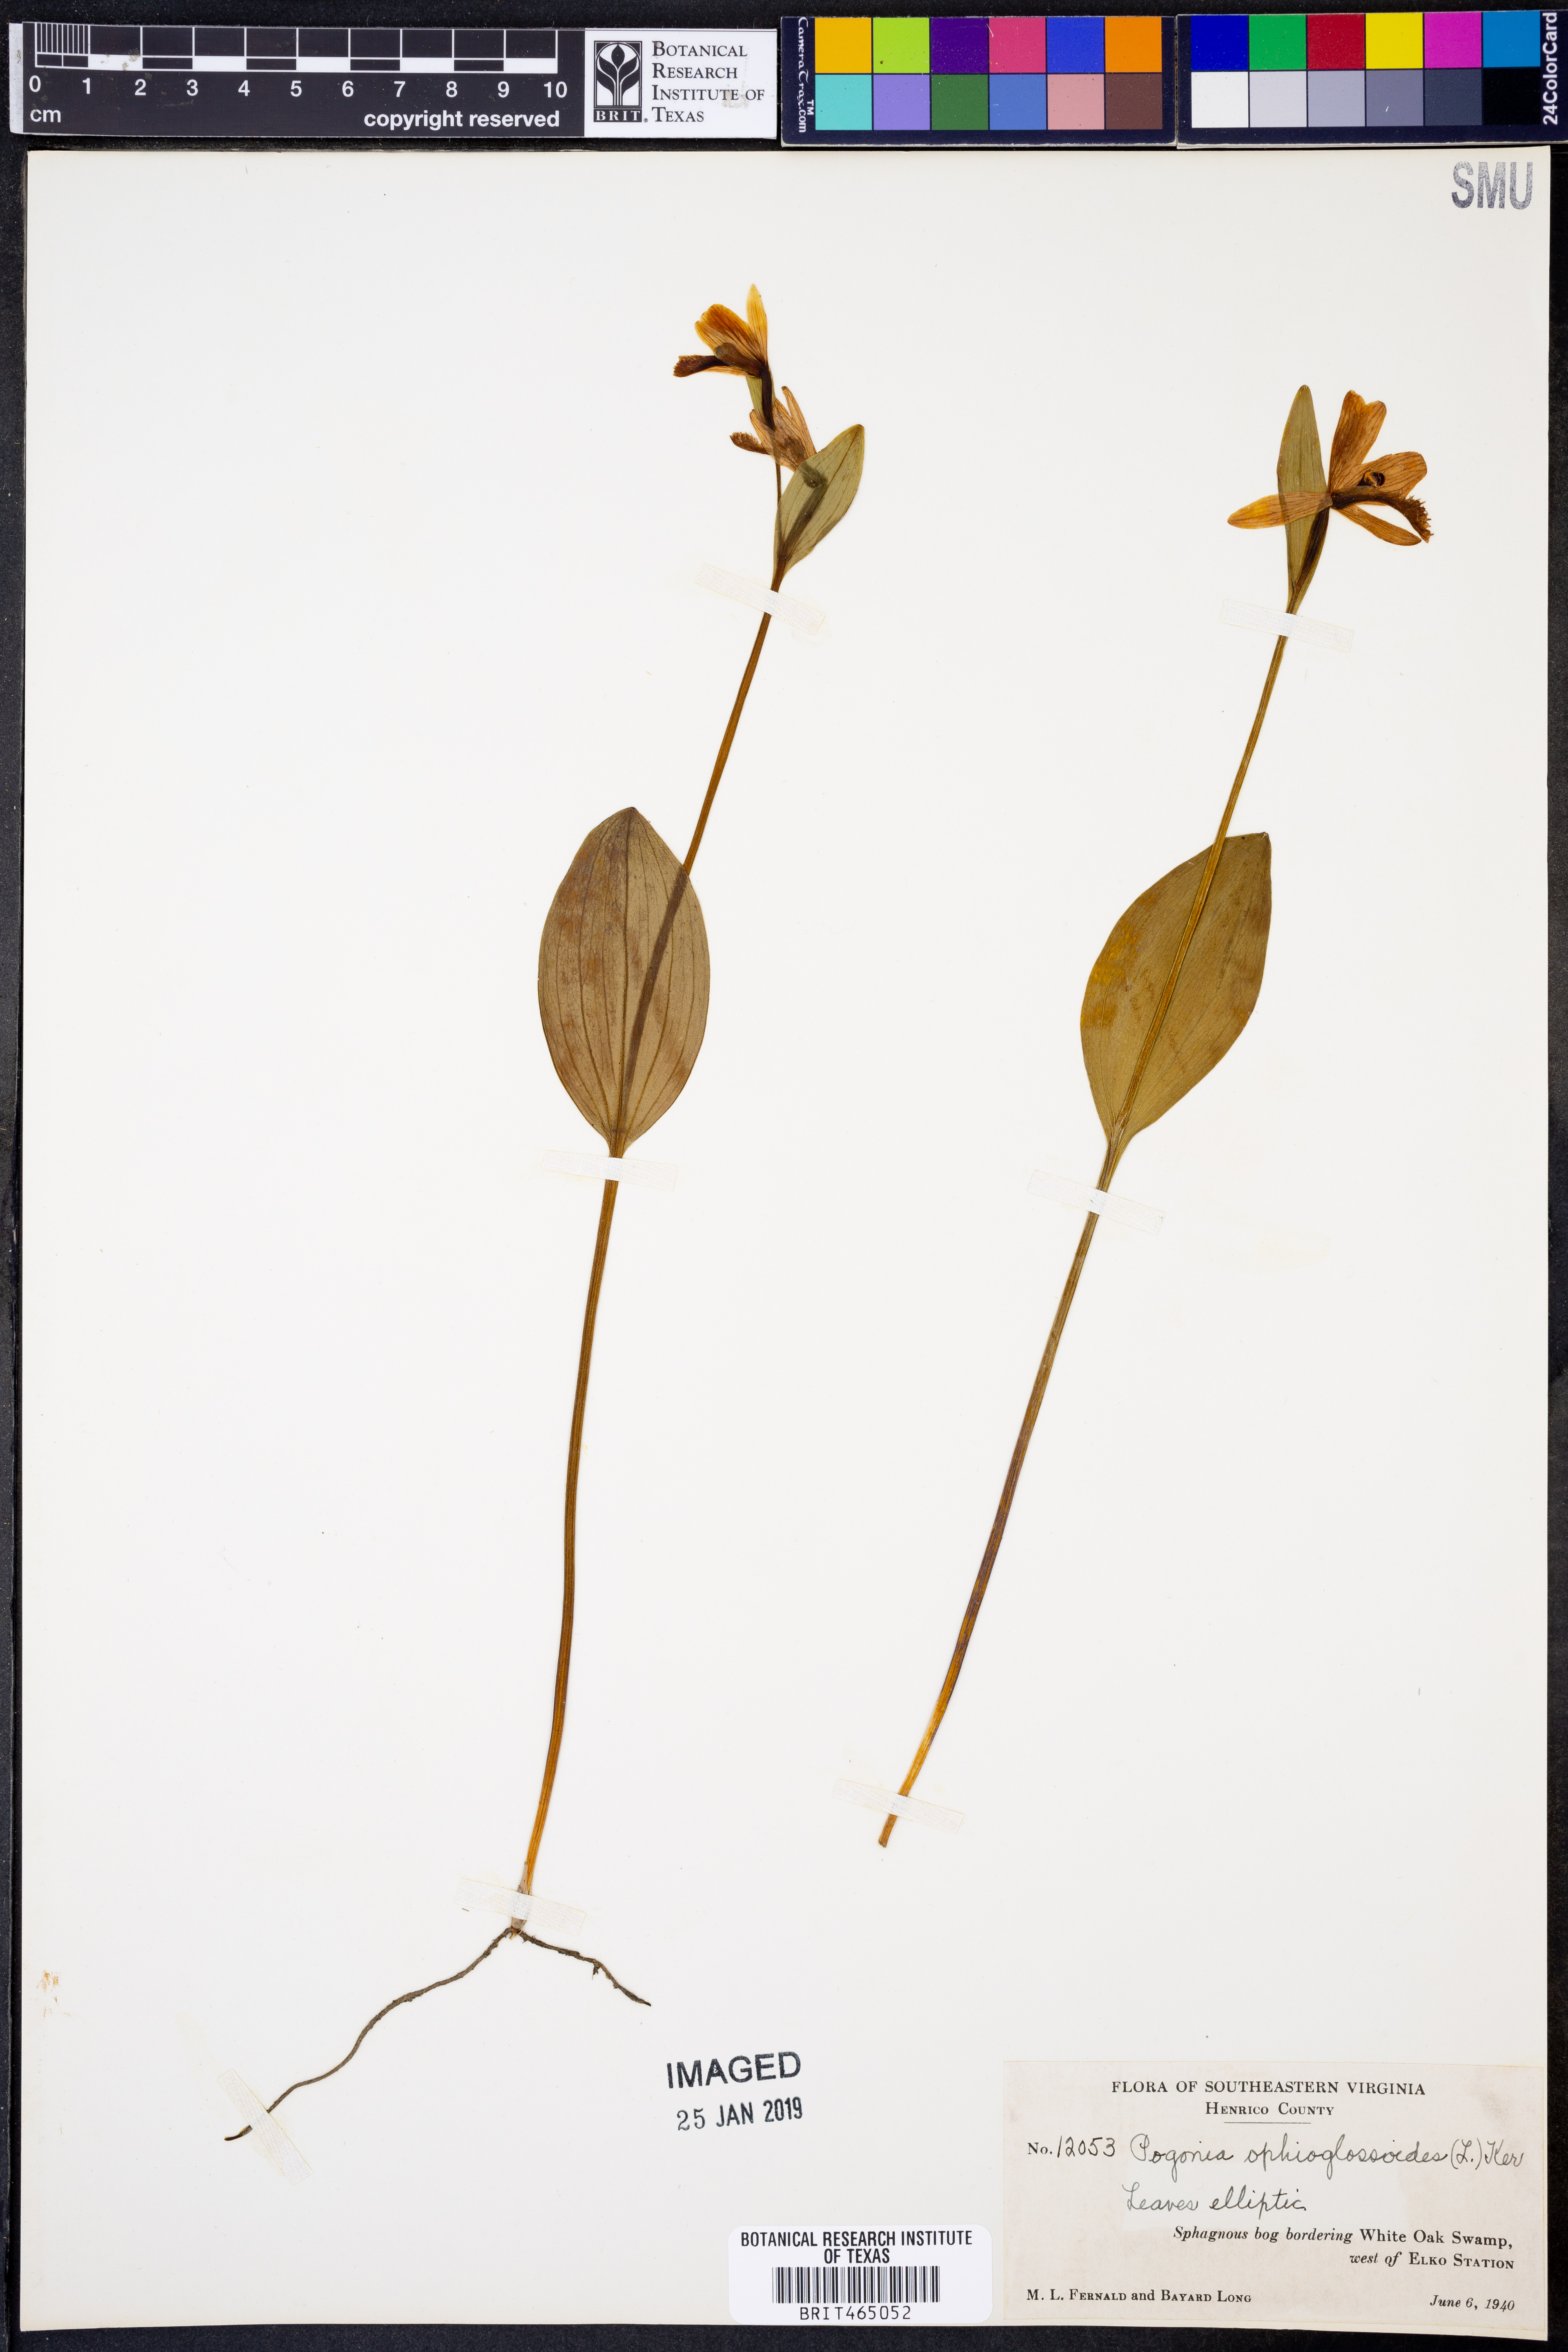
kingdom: Plantae
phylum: Tracheophyta
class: Liliopsida
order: Asparagales
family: Orchidaceae
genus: Pogonia
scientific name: Pogonia ophioglossoides
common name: Rose pogonia
